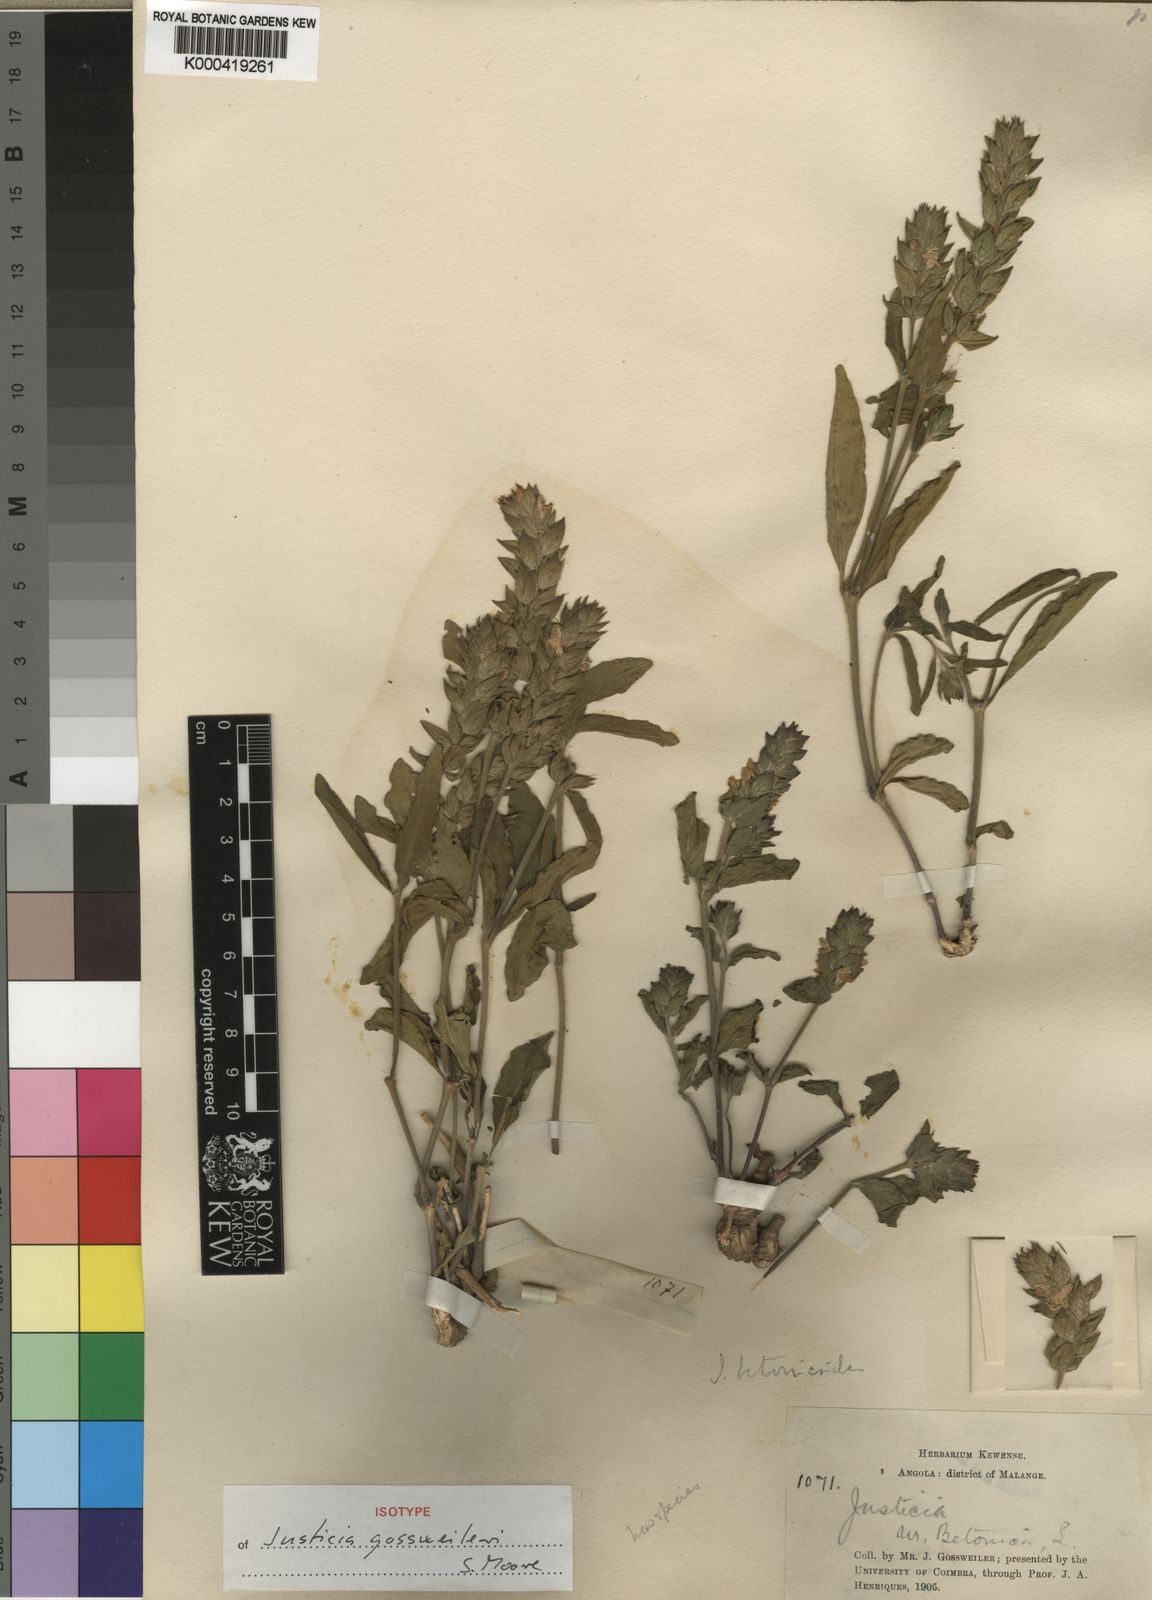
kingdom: Plantae
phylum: Tracheophyta
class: Magnoliopsida
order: Lamiales
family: Acanthaceae
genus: Nicoteba
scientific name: Nicoteba betonica
